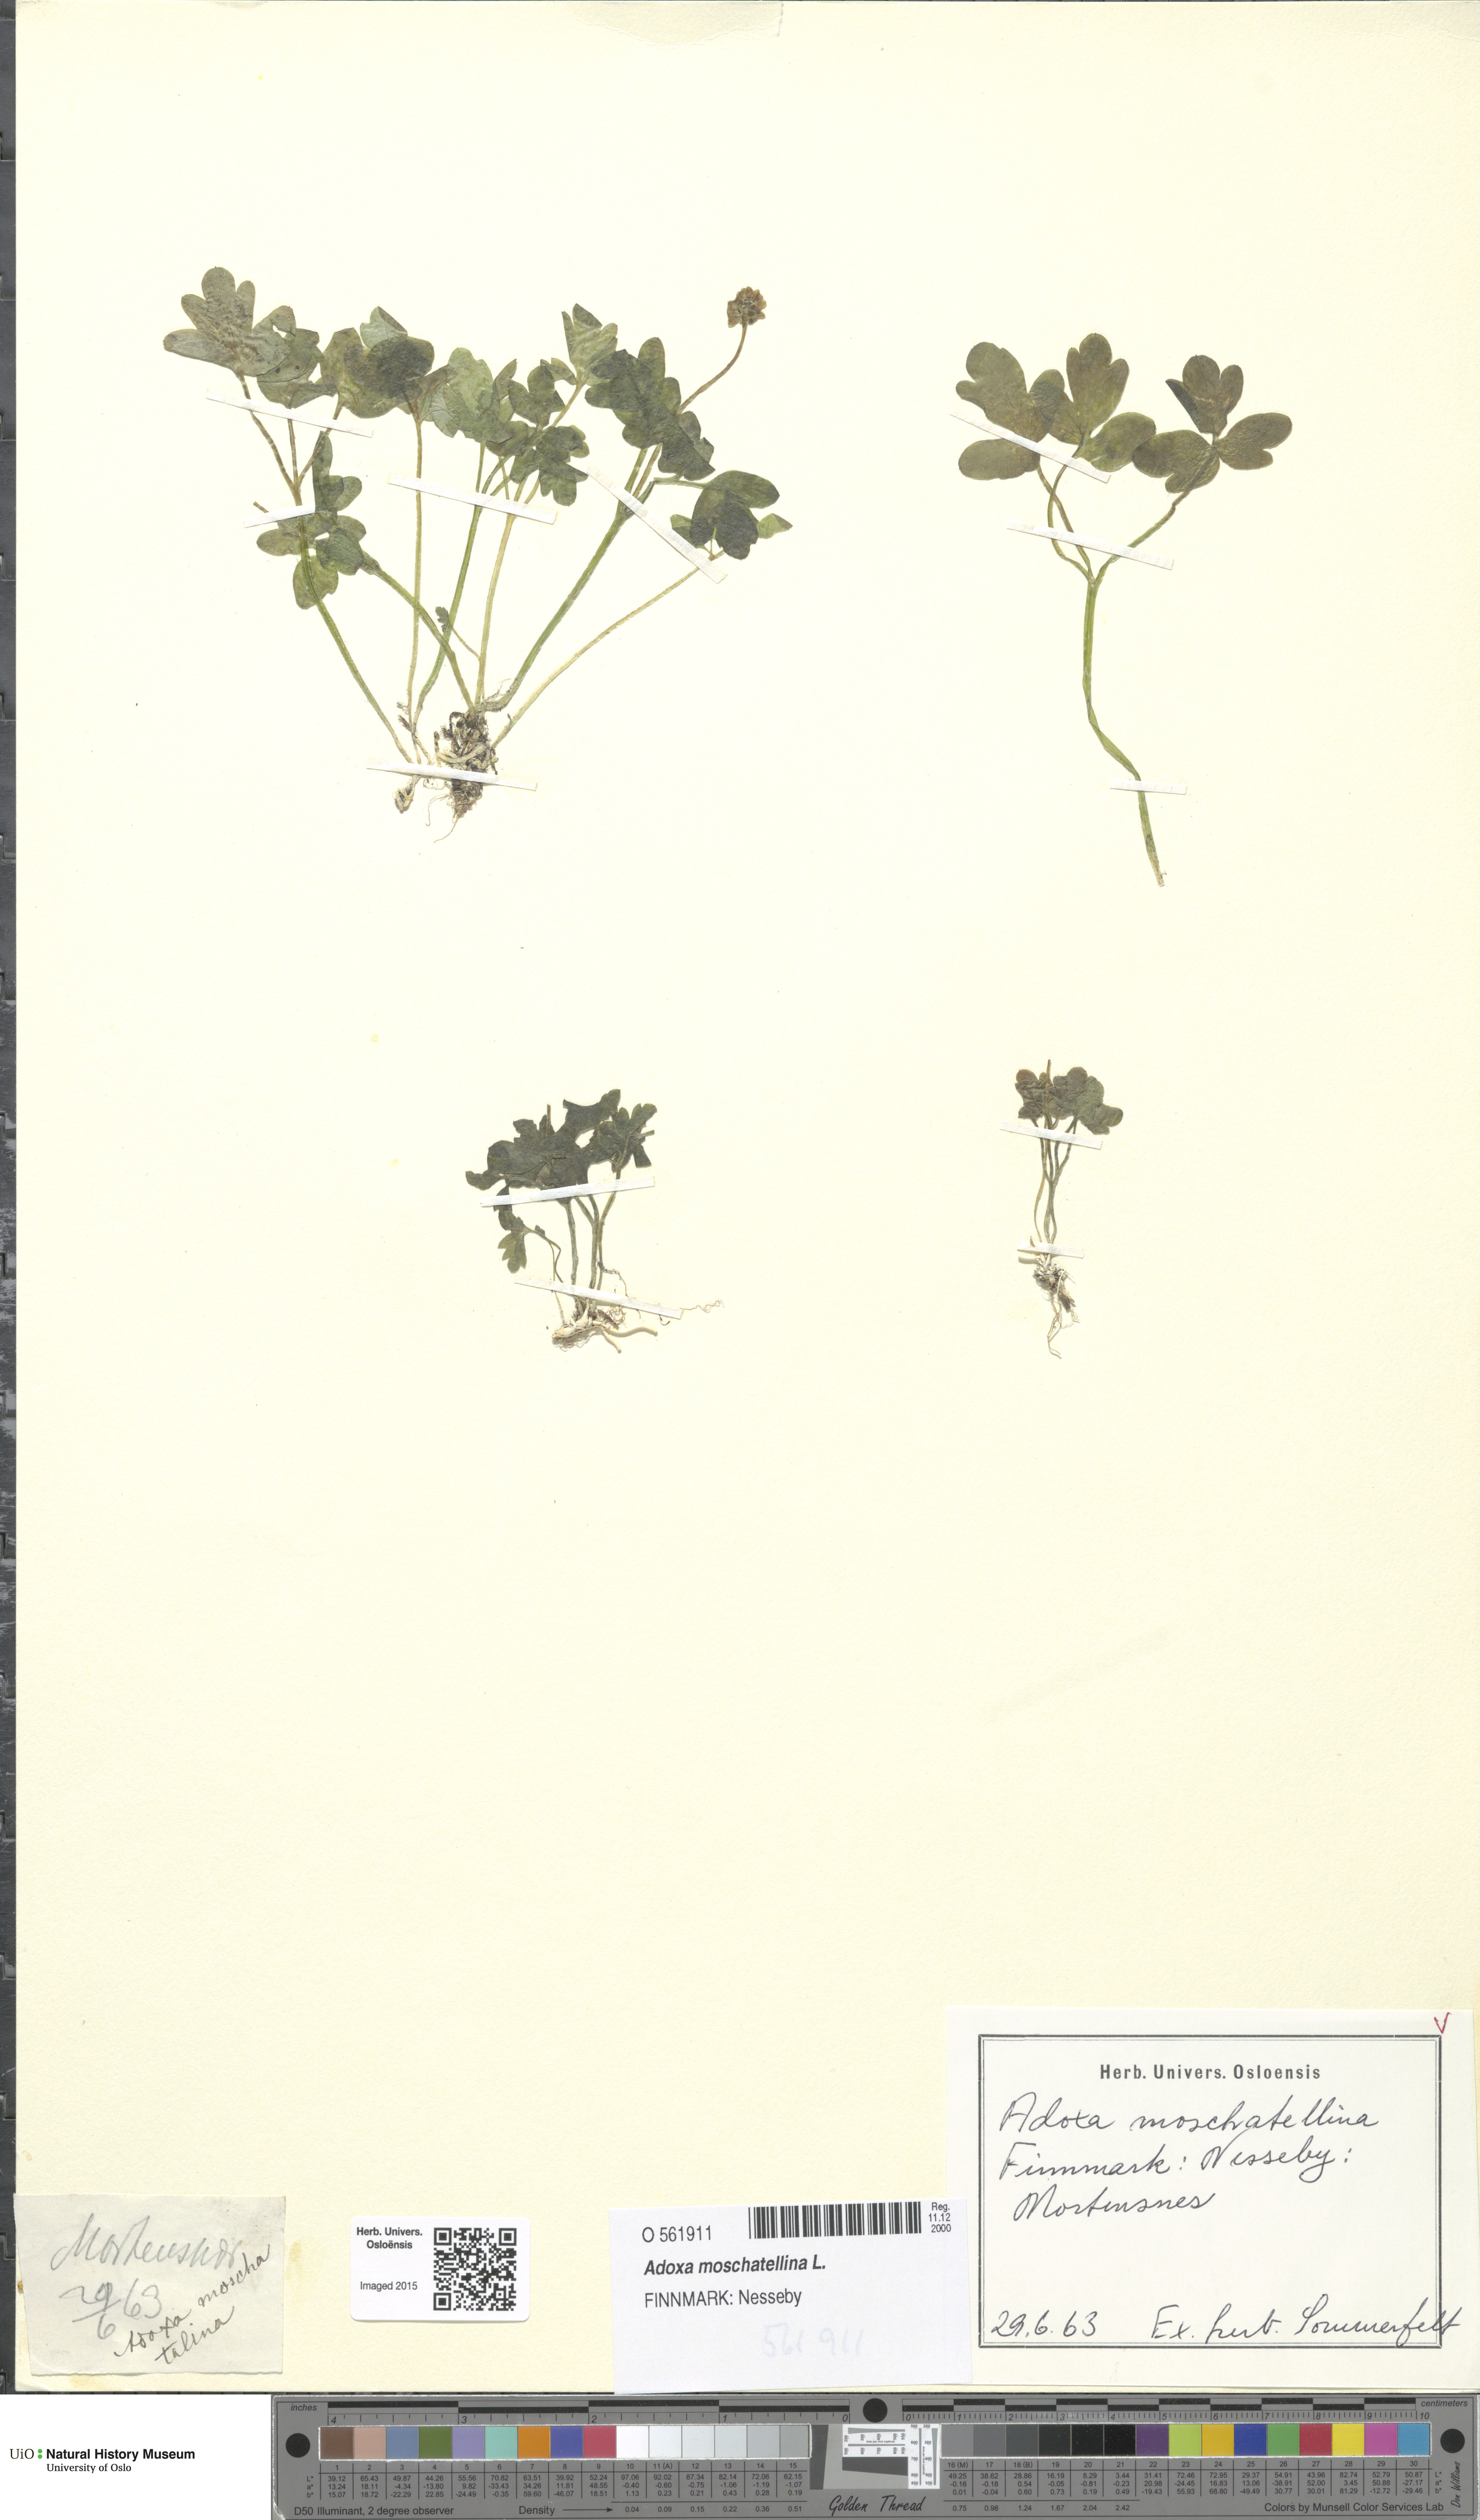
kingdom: Plantae
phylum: Tracheophyta
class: Magnoliopsida
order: Dipsacales
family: Viburnaceae
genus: Adoxa
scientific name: Adoxa moschatellina
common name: Moschatel
